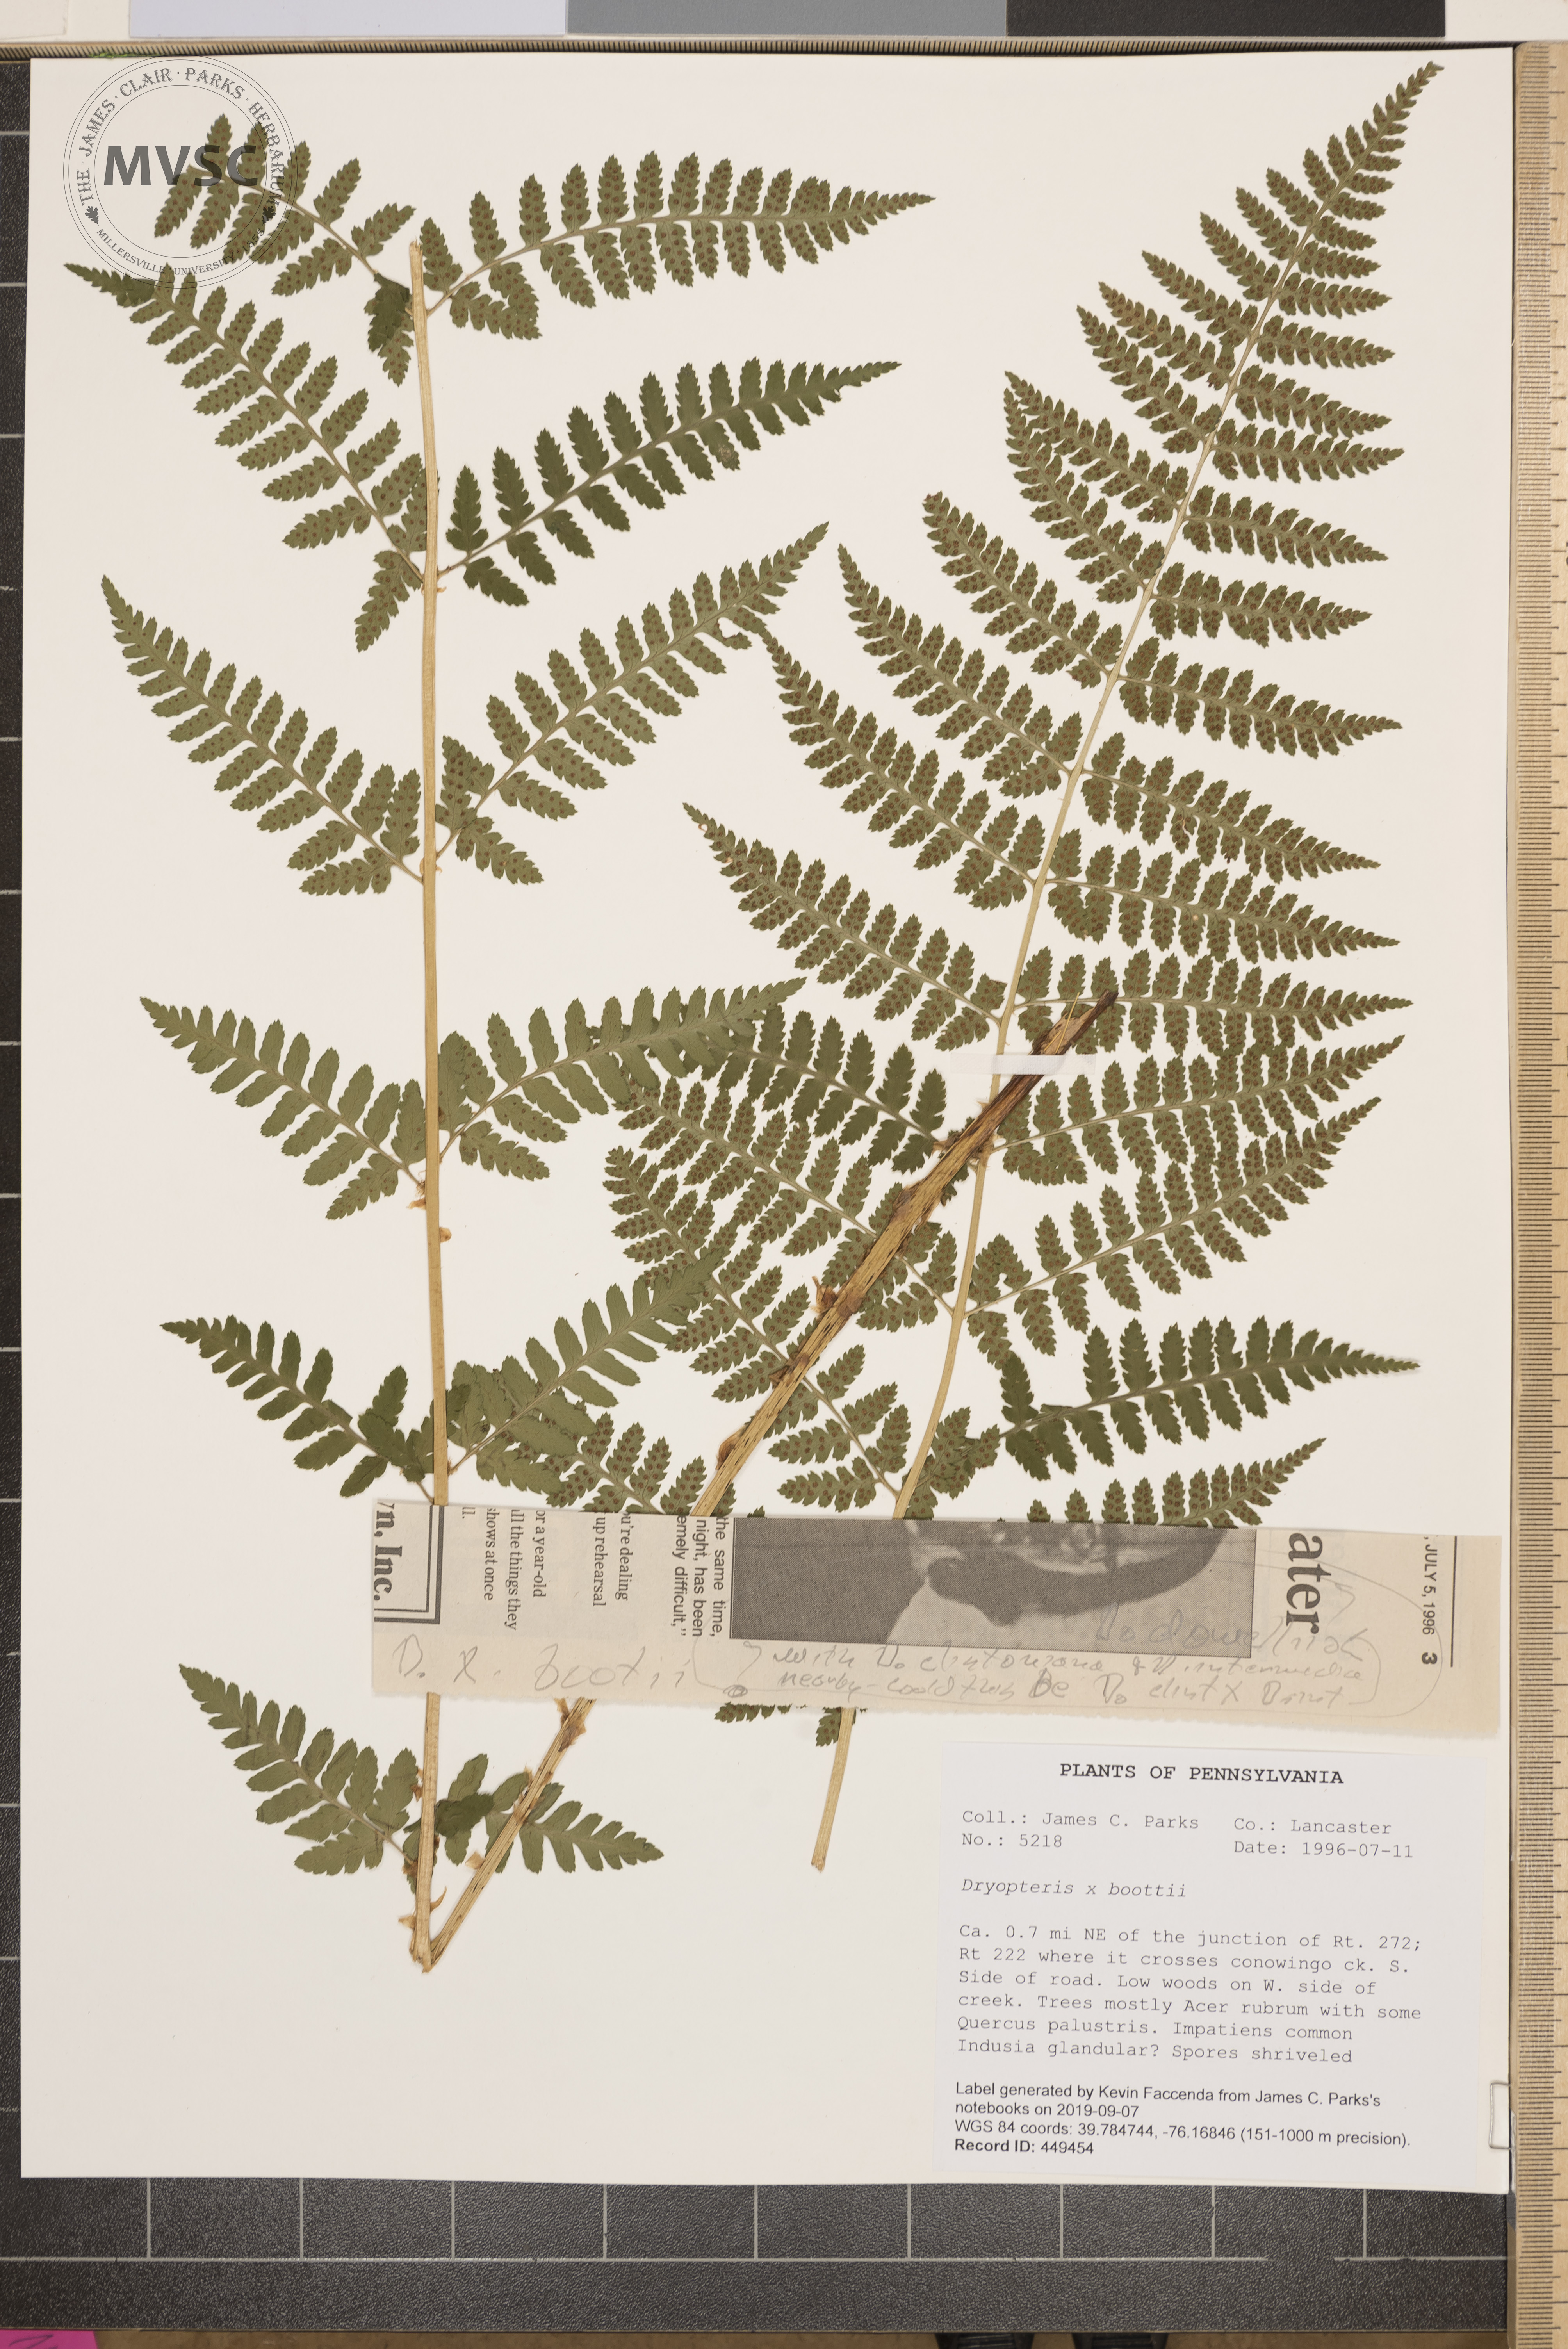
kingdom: Plantae
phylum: Tracheophyta
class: Polypodiopsida
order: Polypodiales
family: Dryopteridaceae
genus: Dryopteris
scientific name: Dryopteris boottii
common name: Boott's fern
